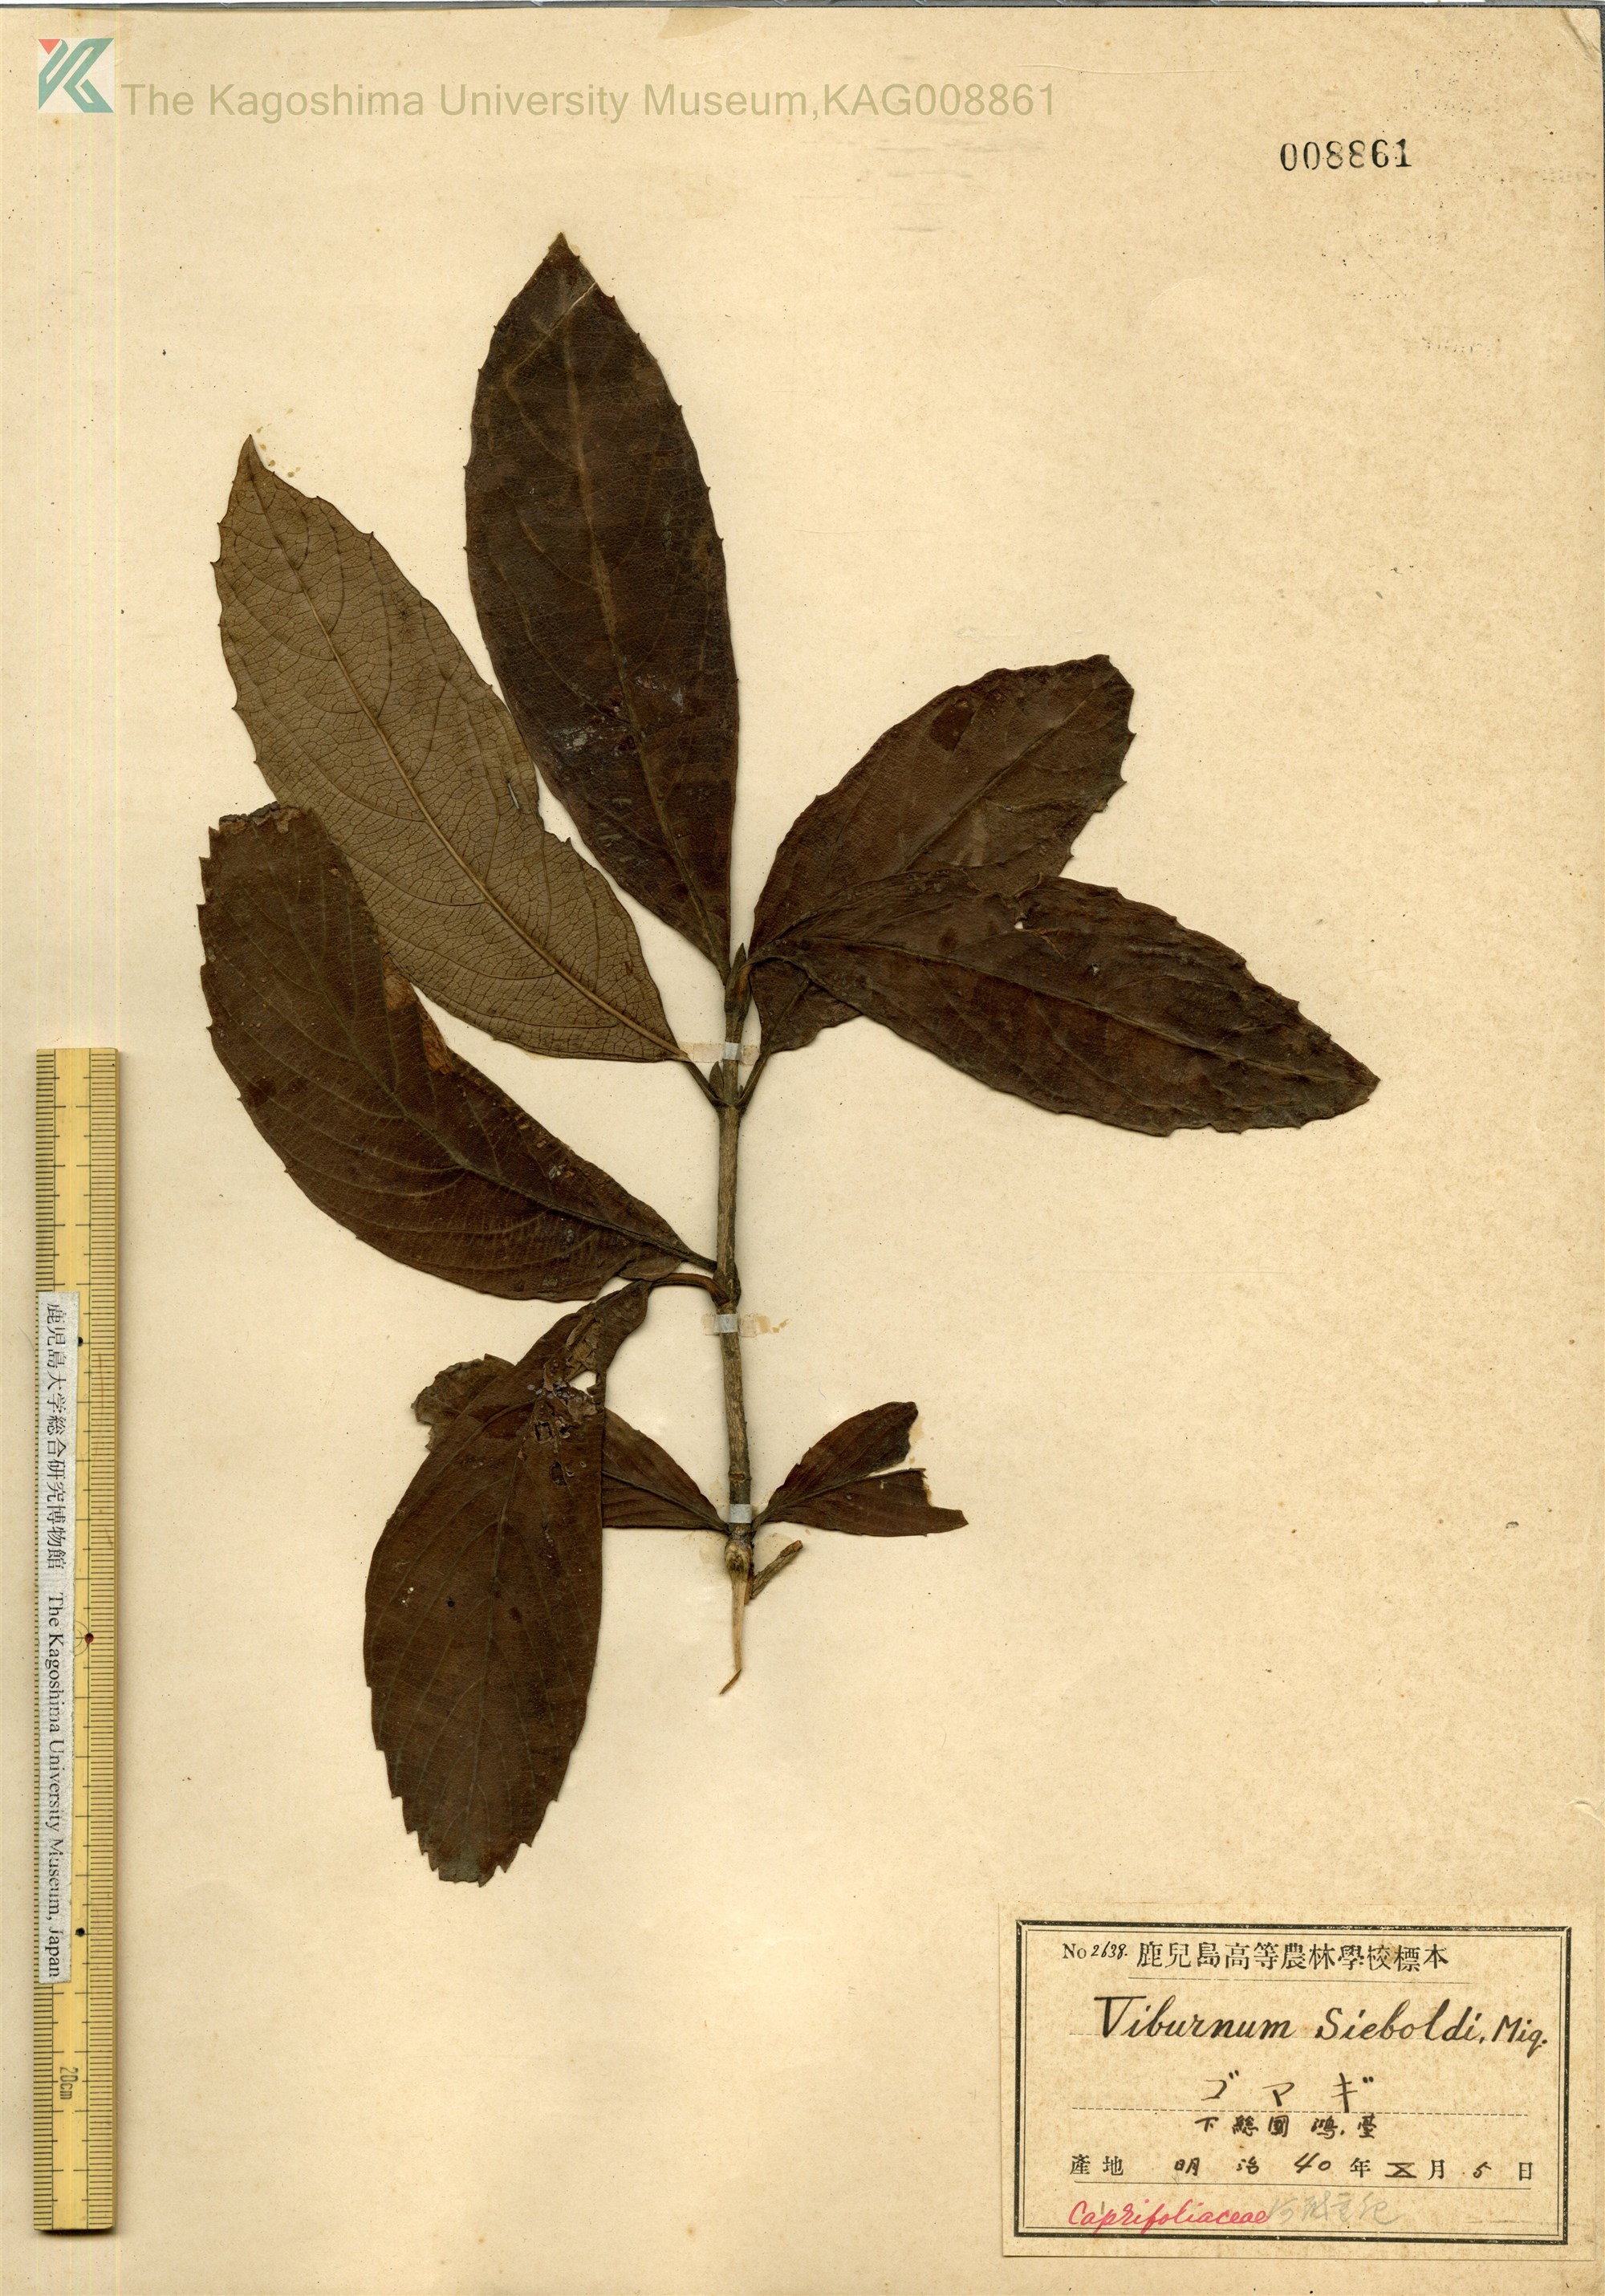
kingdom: Plantae
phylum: Tracheophyta
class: Magnoliopsida
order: Dipsacales
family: Viburnaceae
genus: Viburnum
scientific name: Viburnum sieboldii
